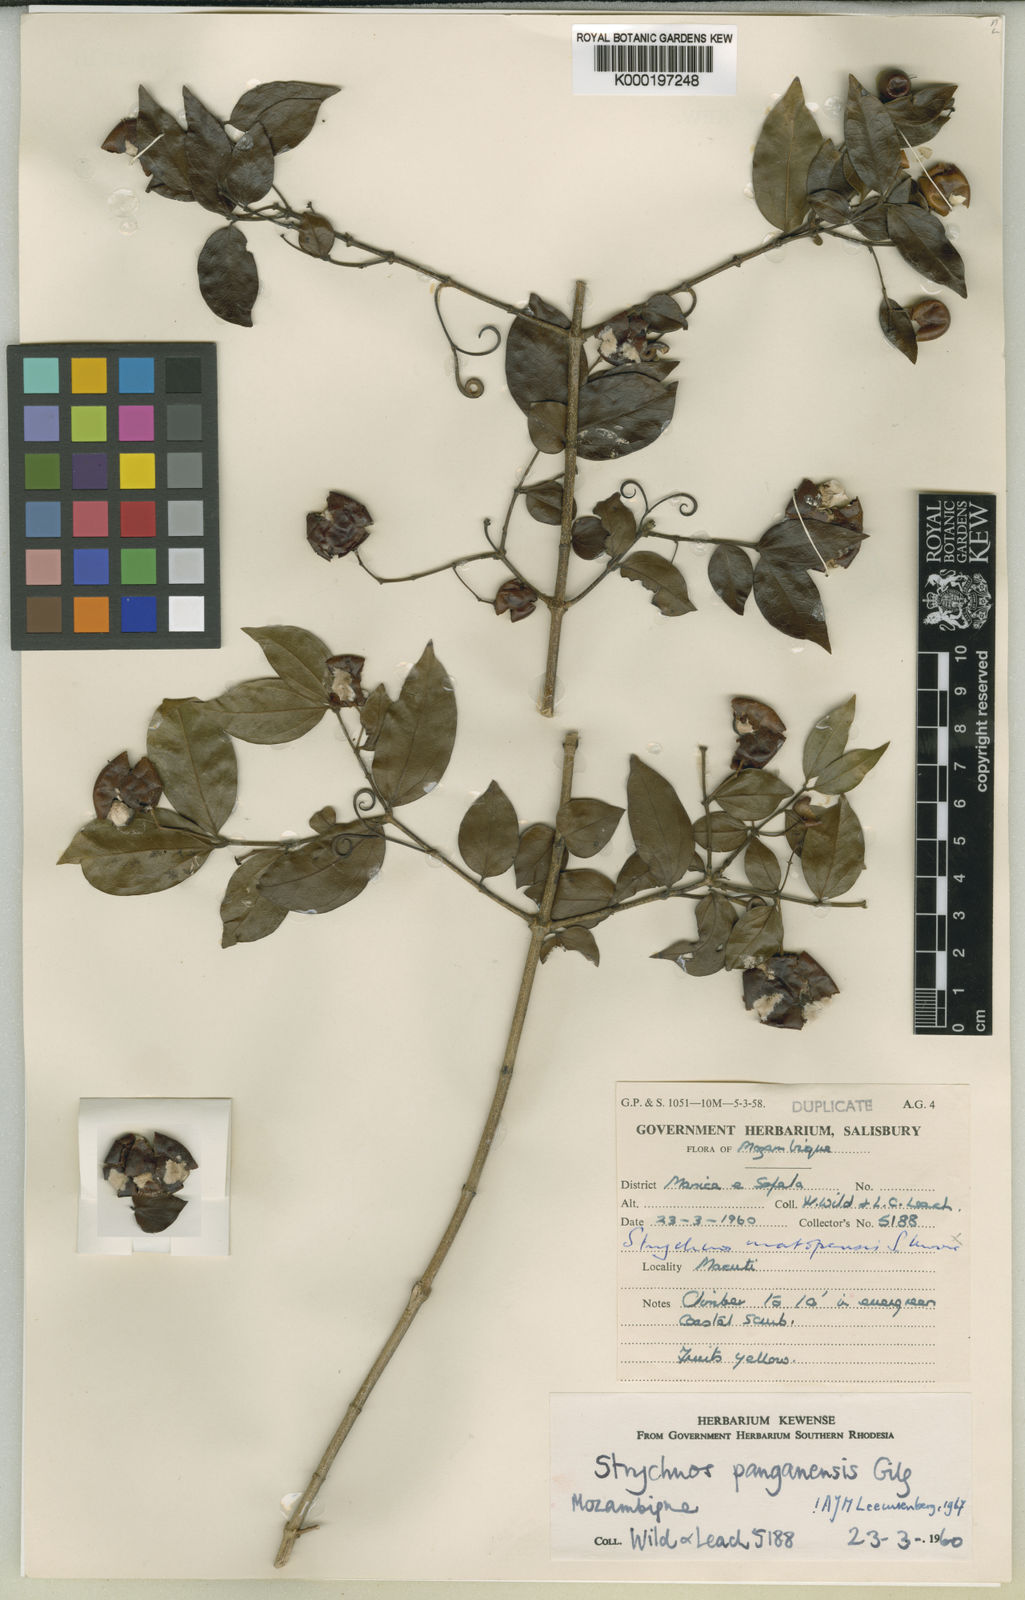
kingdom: Plantae
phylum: Tracheophyta
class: Magnoliopsida
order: Gentianales
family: Loganiaceae
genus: Strychnos
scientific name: Strychnos panganensis
